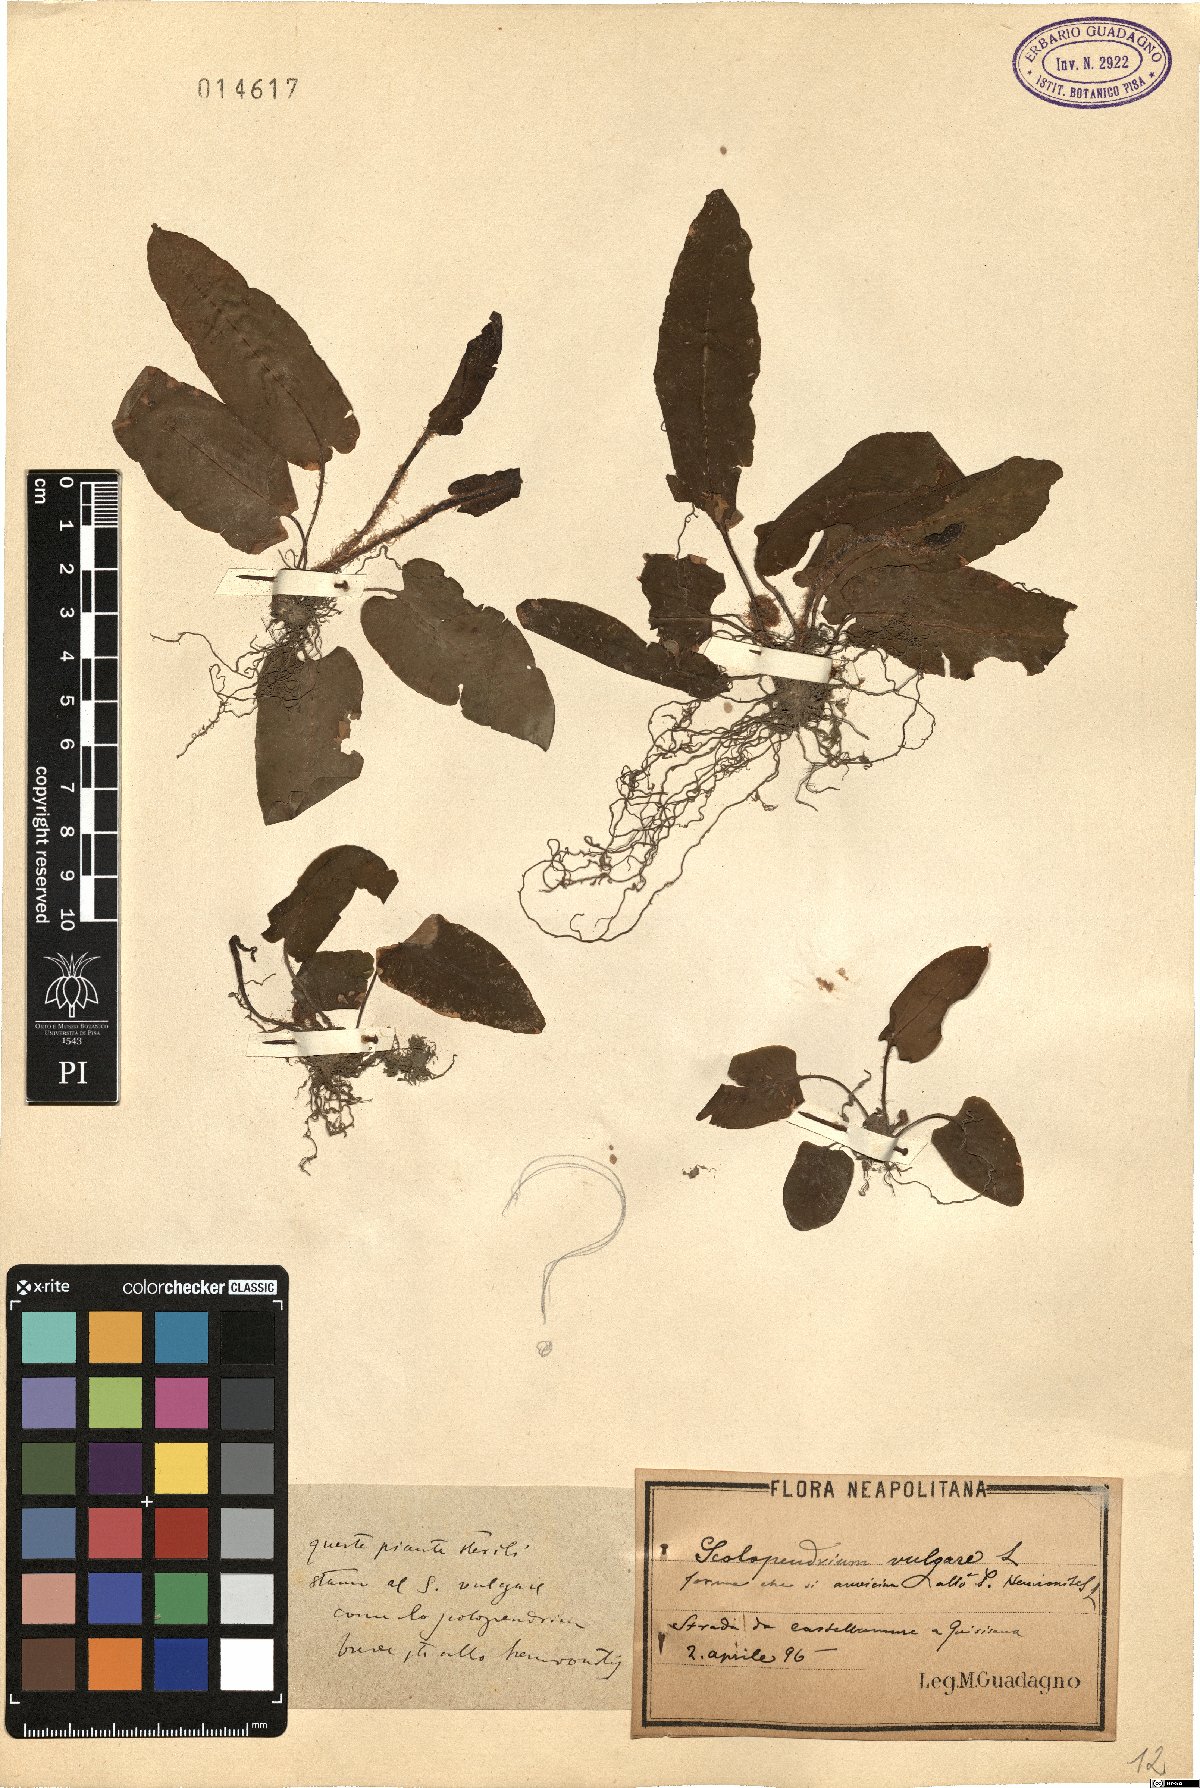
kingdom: Plantae
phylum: Tracheophyta
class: Polypodiopsida
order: Polypodiales
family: Aspleniaceae
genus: Asplenium
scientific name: Asplenium scolopendrium
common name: Hart's-tongue fern
